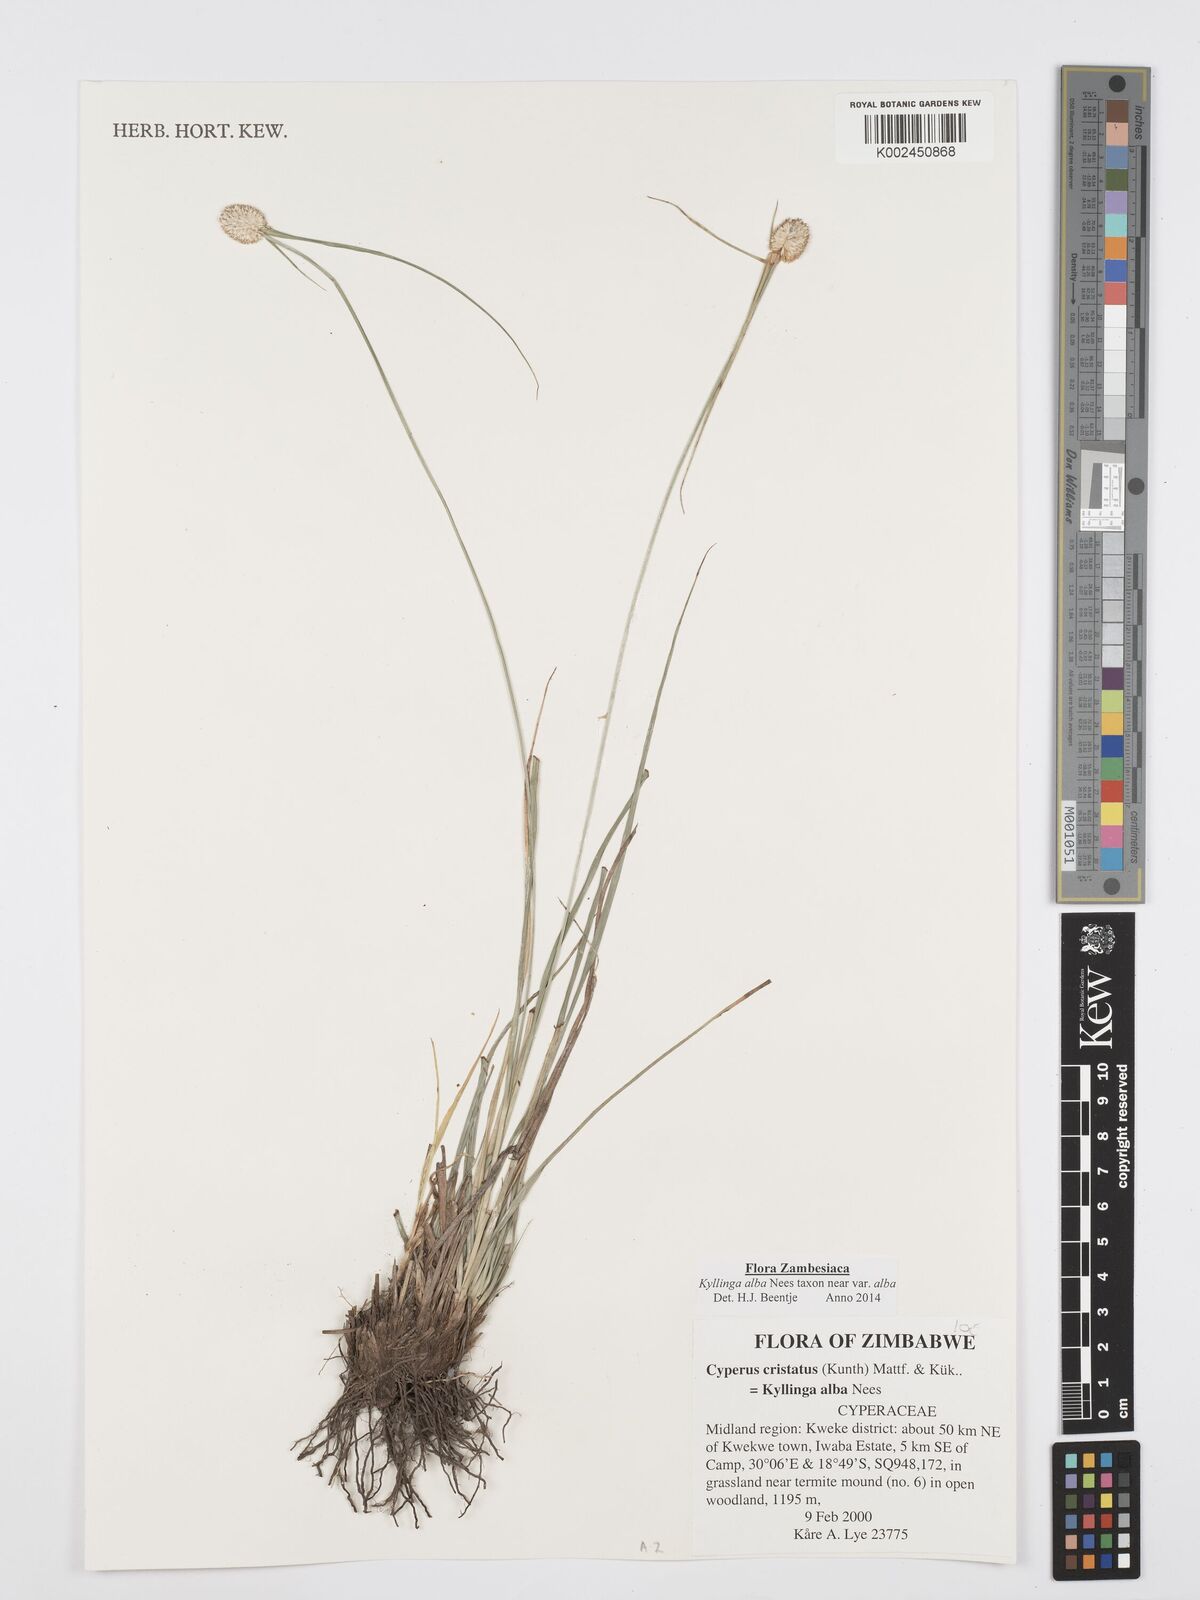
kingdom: Plantae
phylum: Tracheophyta
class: Liliopsida
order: Poales
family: Cyperaceae
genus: Cyperus
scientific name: Cyperus
